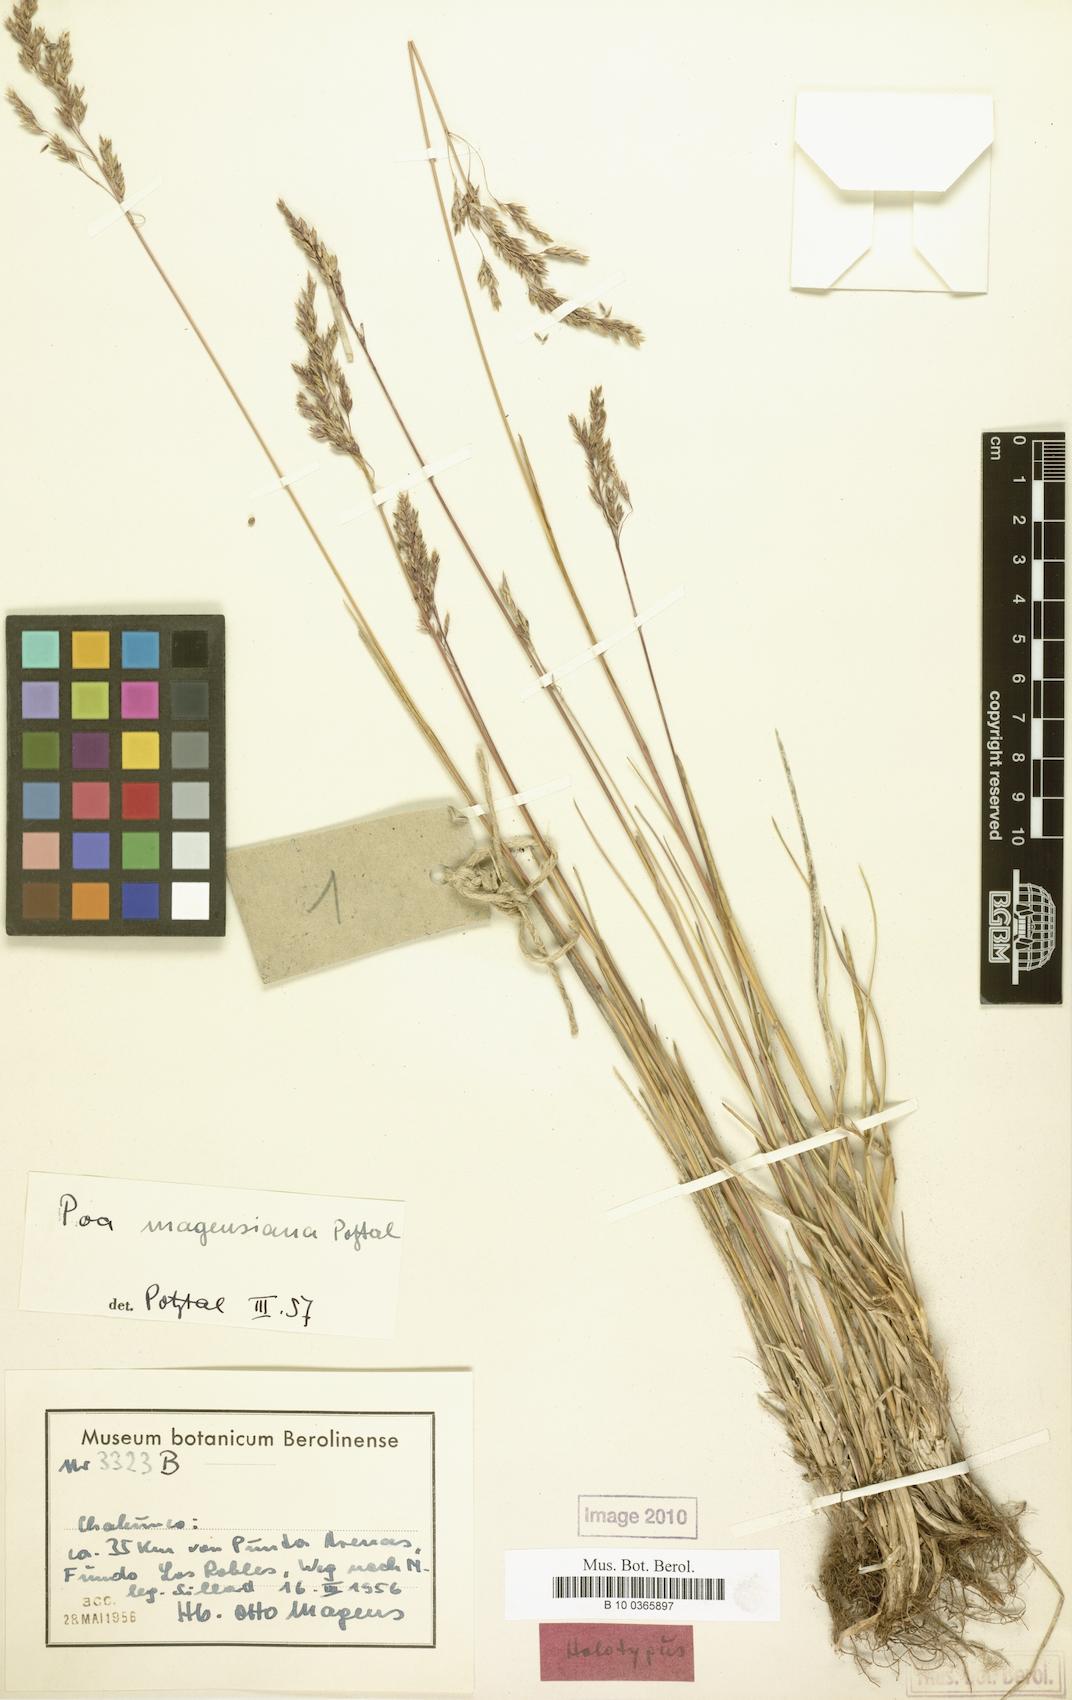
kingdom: Plantae
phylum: Tracheophyta
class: Liliopsida
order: Poales
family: Poaceae
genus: Poa
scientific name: Poa pratensis
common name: Kentucky bluegrass
